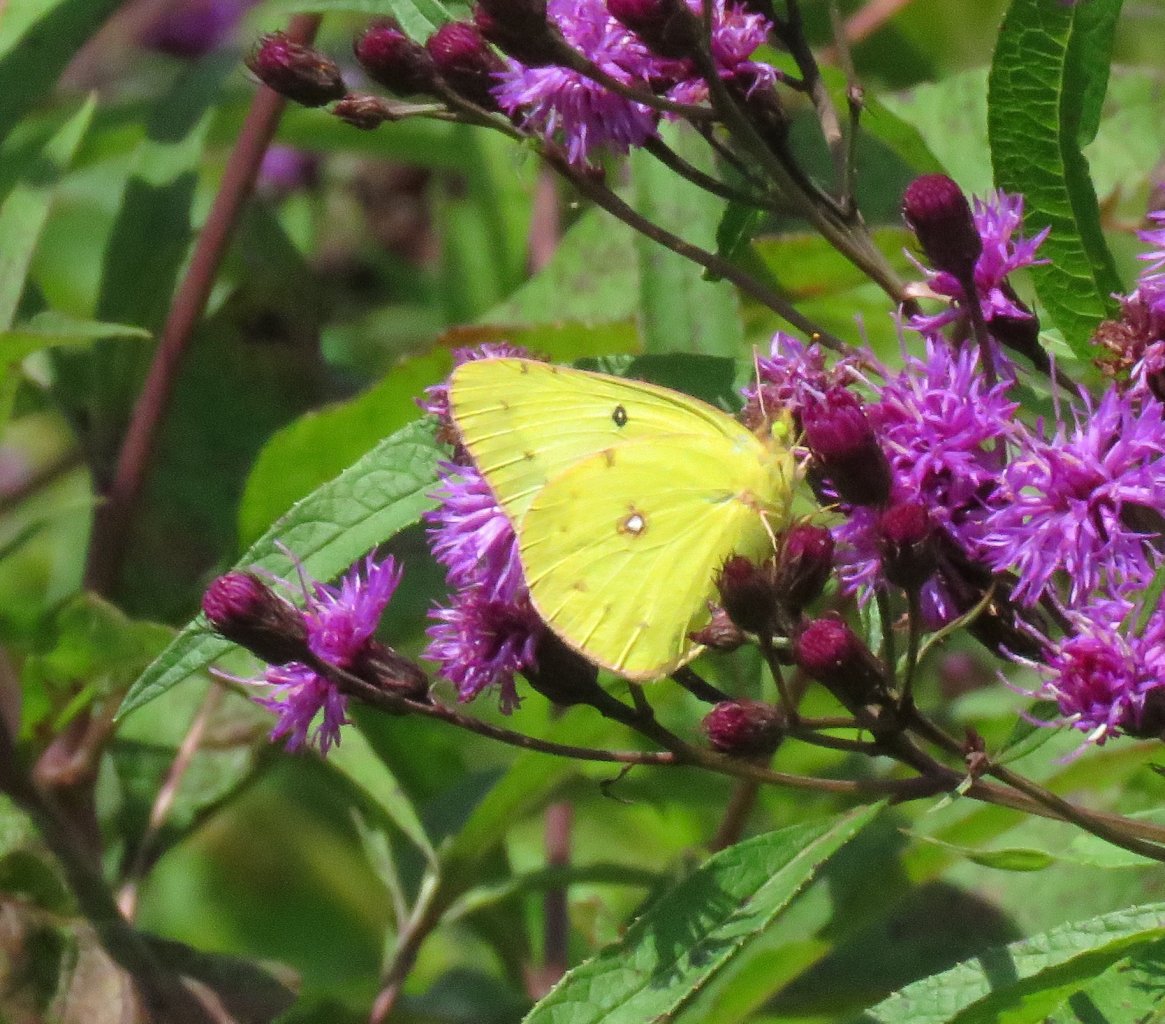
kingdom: Animalia
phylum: Arthropoda
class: Insecta
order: Lepidoptera
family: Pieridae
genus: Colias
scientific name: Colias philodice
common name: Clouded Sulphur
